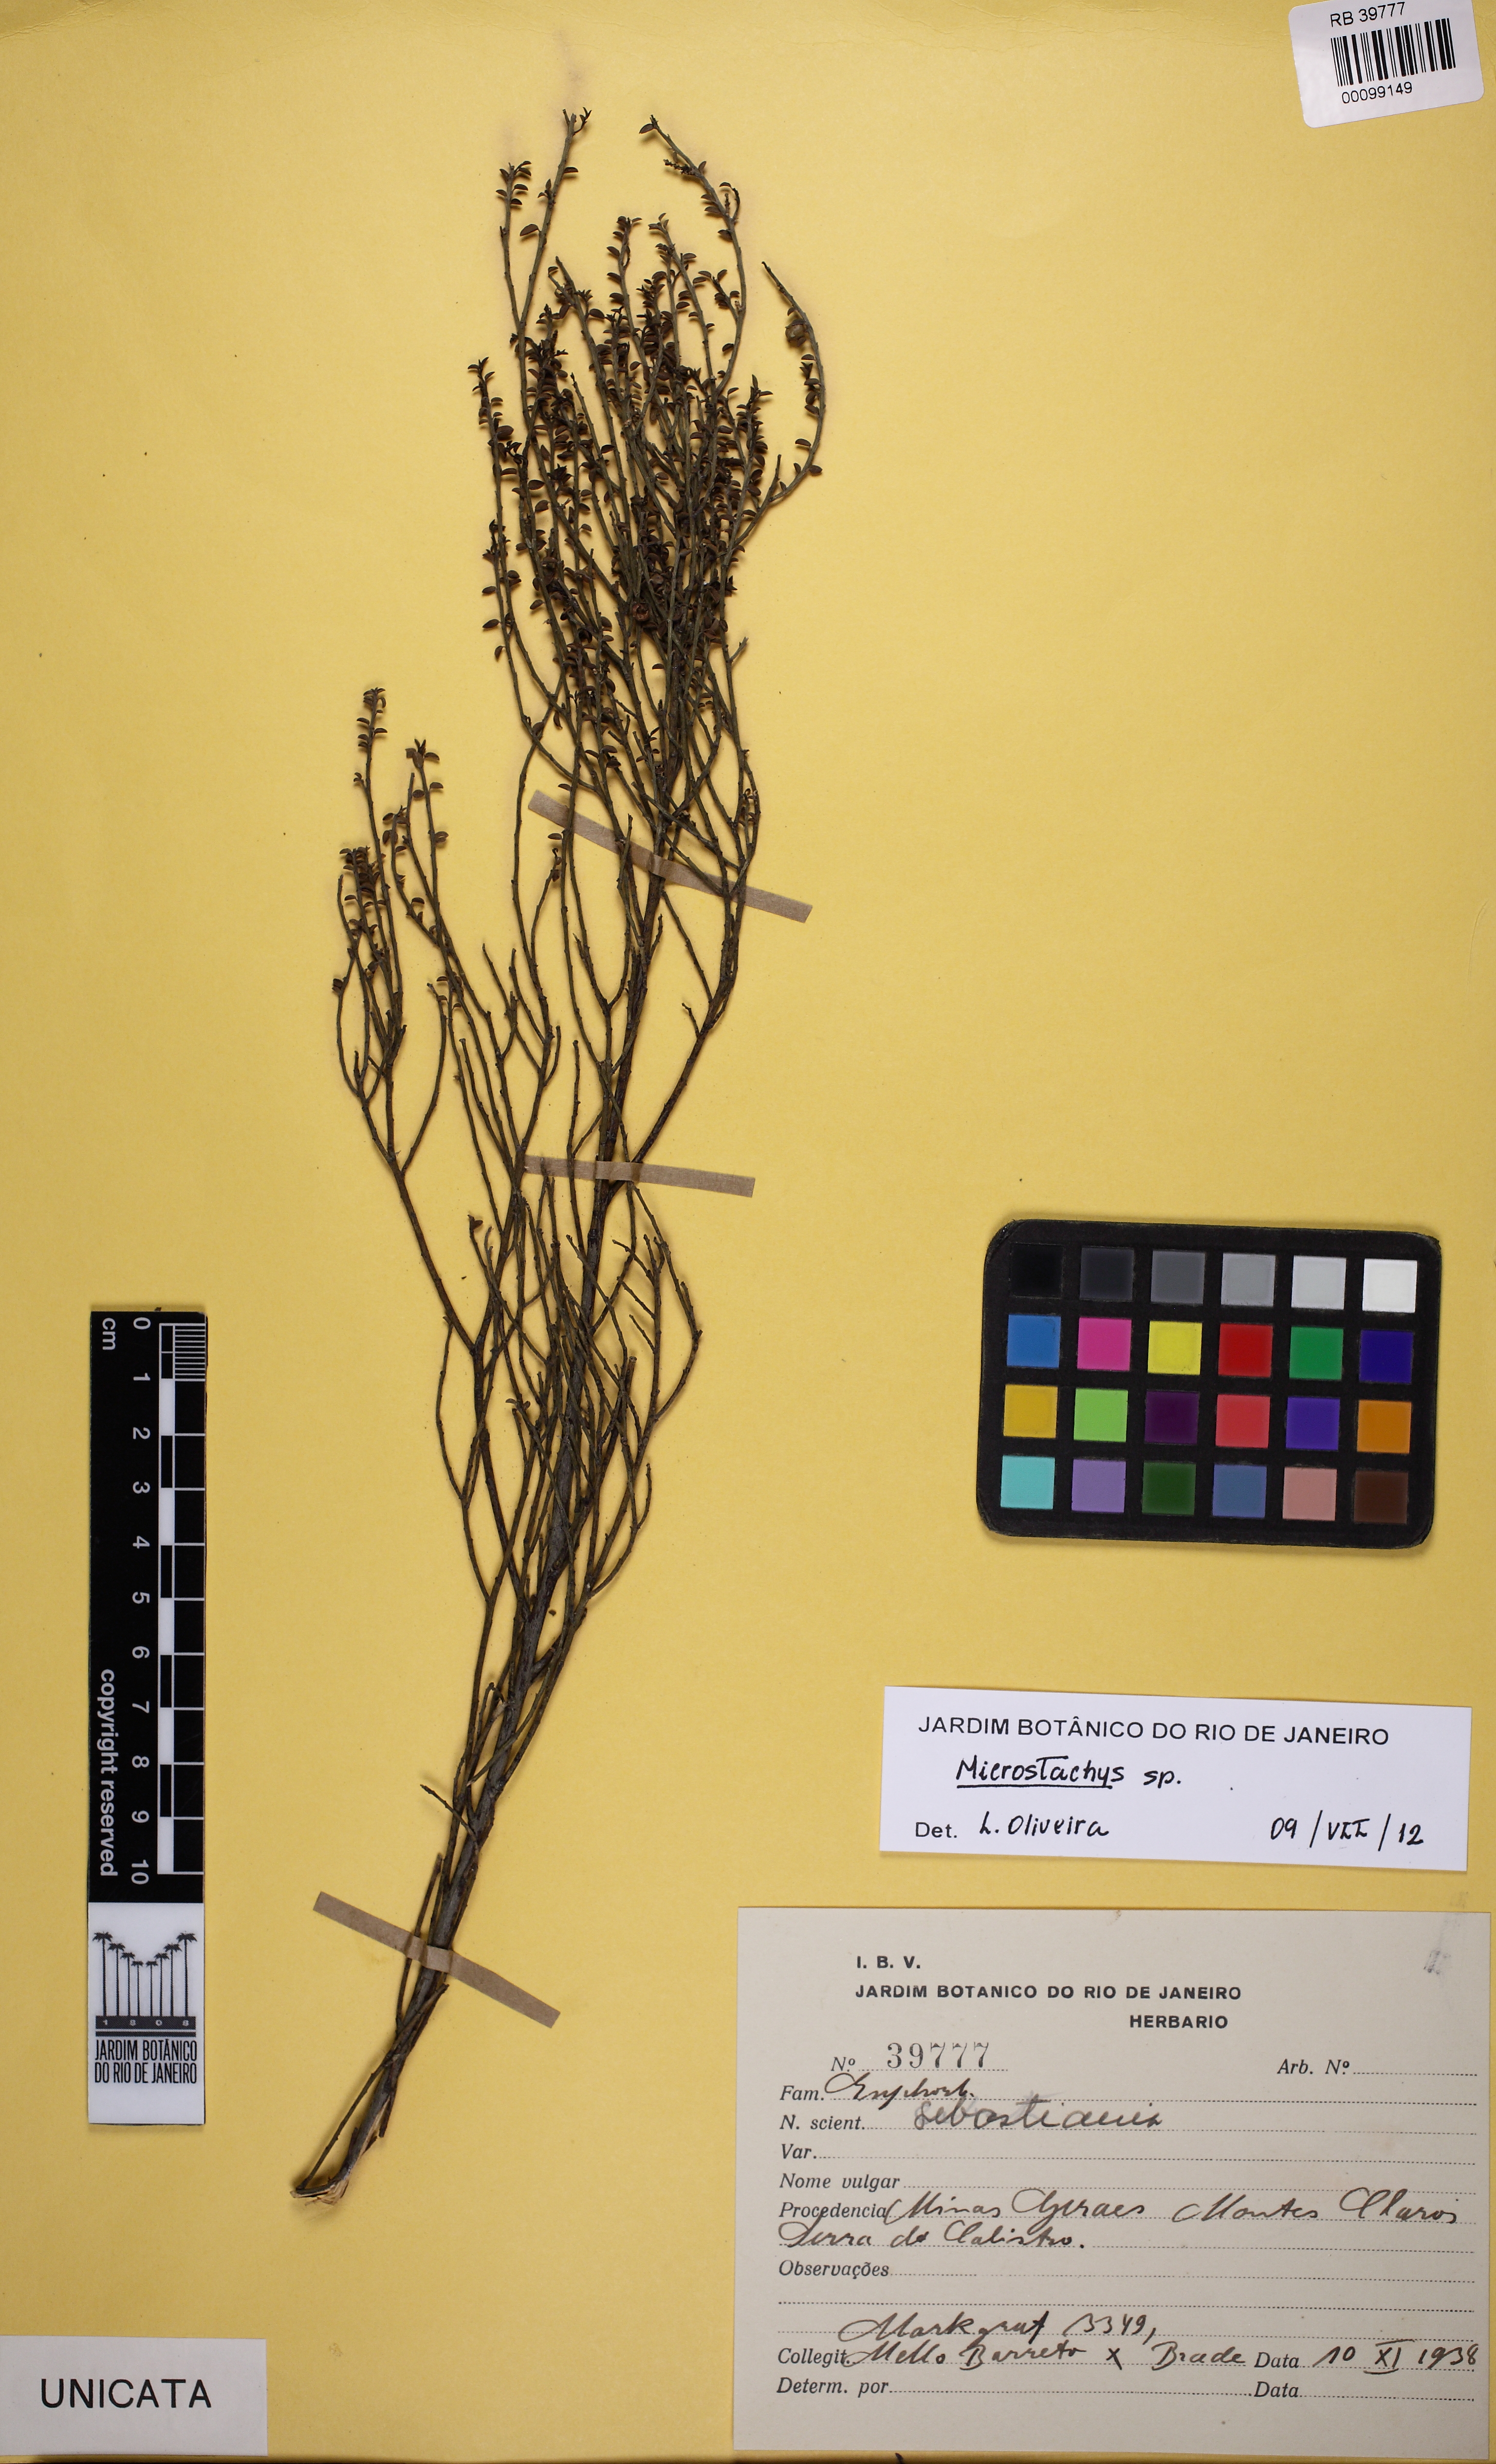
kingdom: Plantae
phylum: Tracheophyta
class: Magnoliopsida
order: Malpighiales
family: Euphorbiaceae
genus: Microstachys
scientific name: Microstachys nummulariifolia
